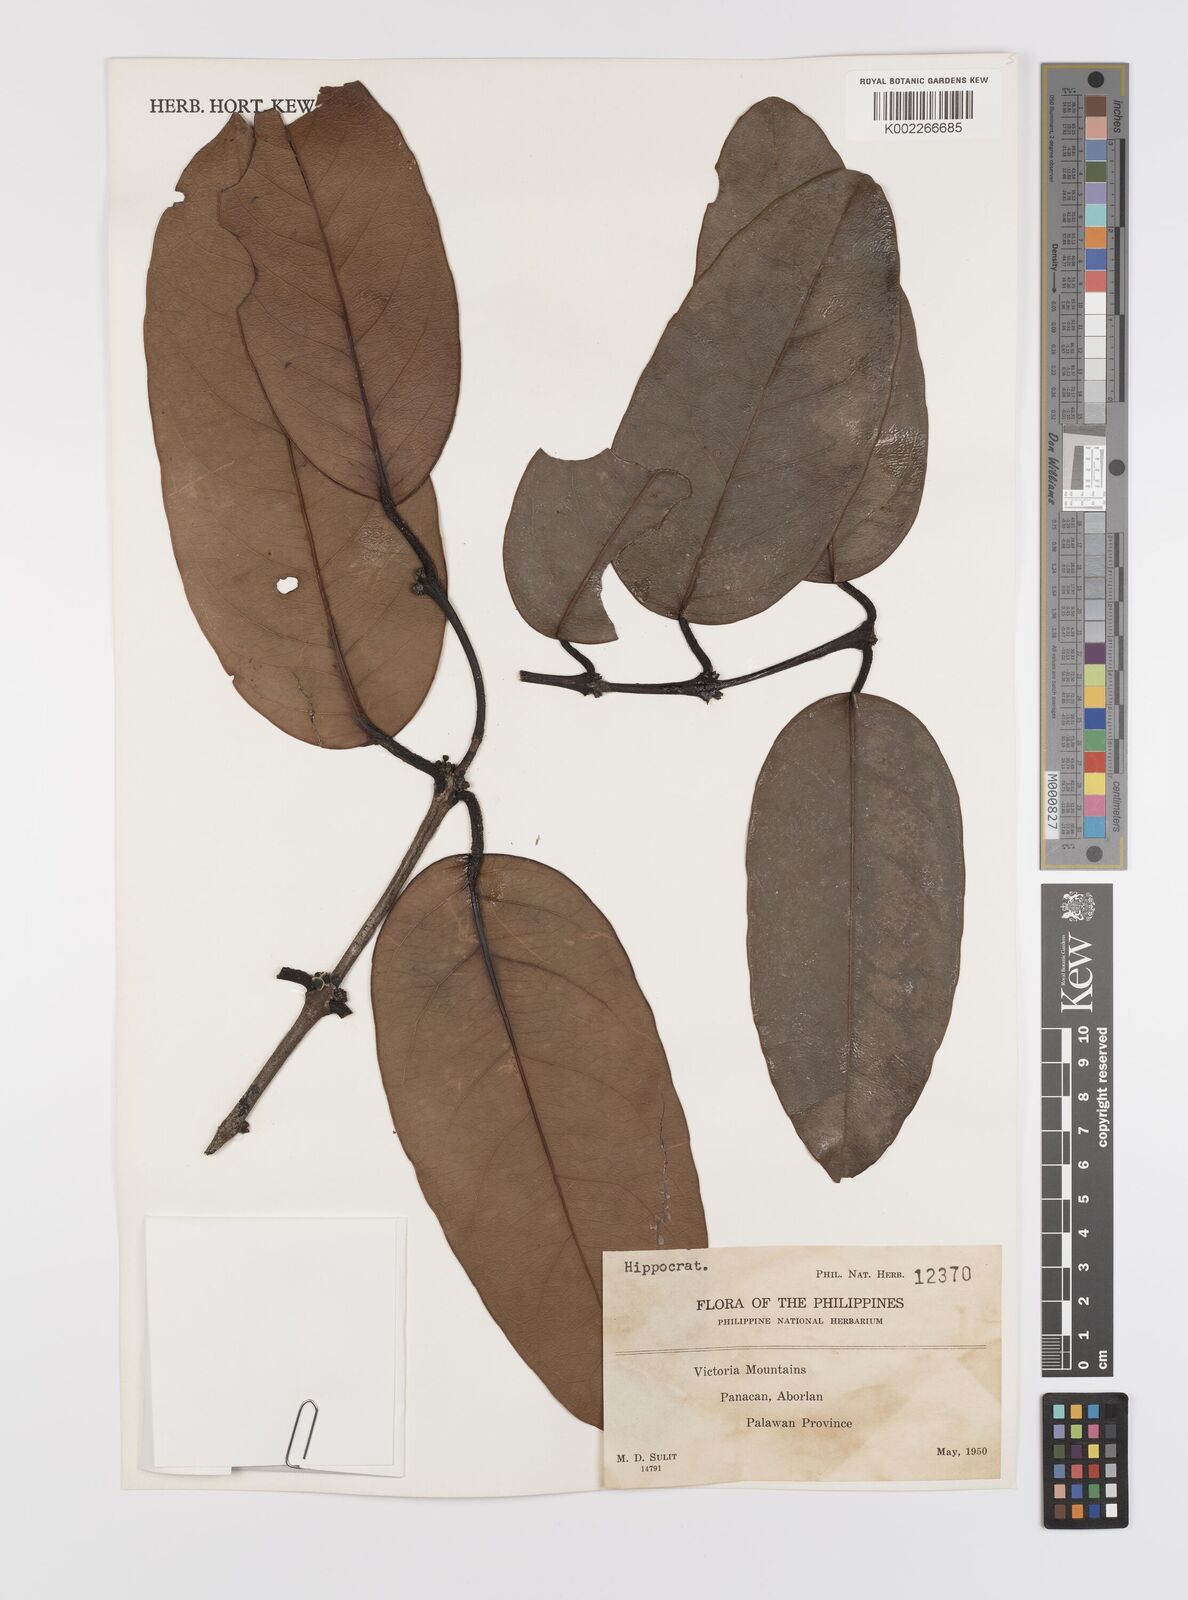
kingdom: Plantae
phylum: Tracheophyta
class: Magnoliopsida
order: Celastrales
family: Celastraceae
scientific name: Celastraceae
